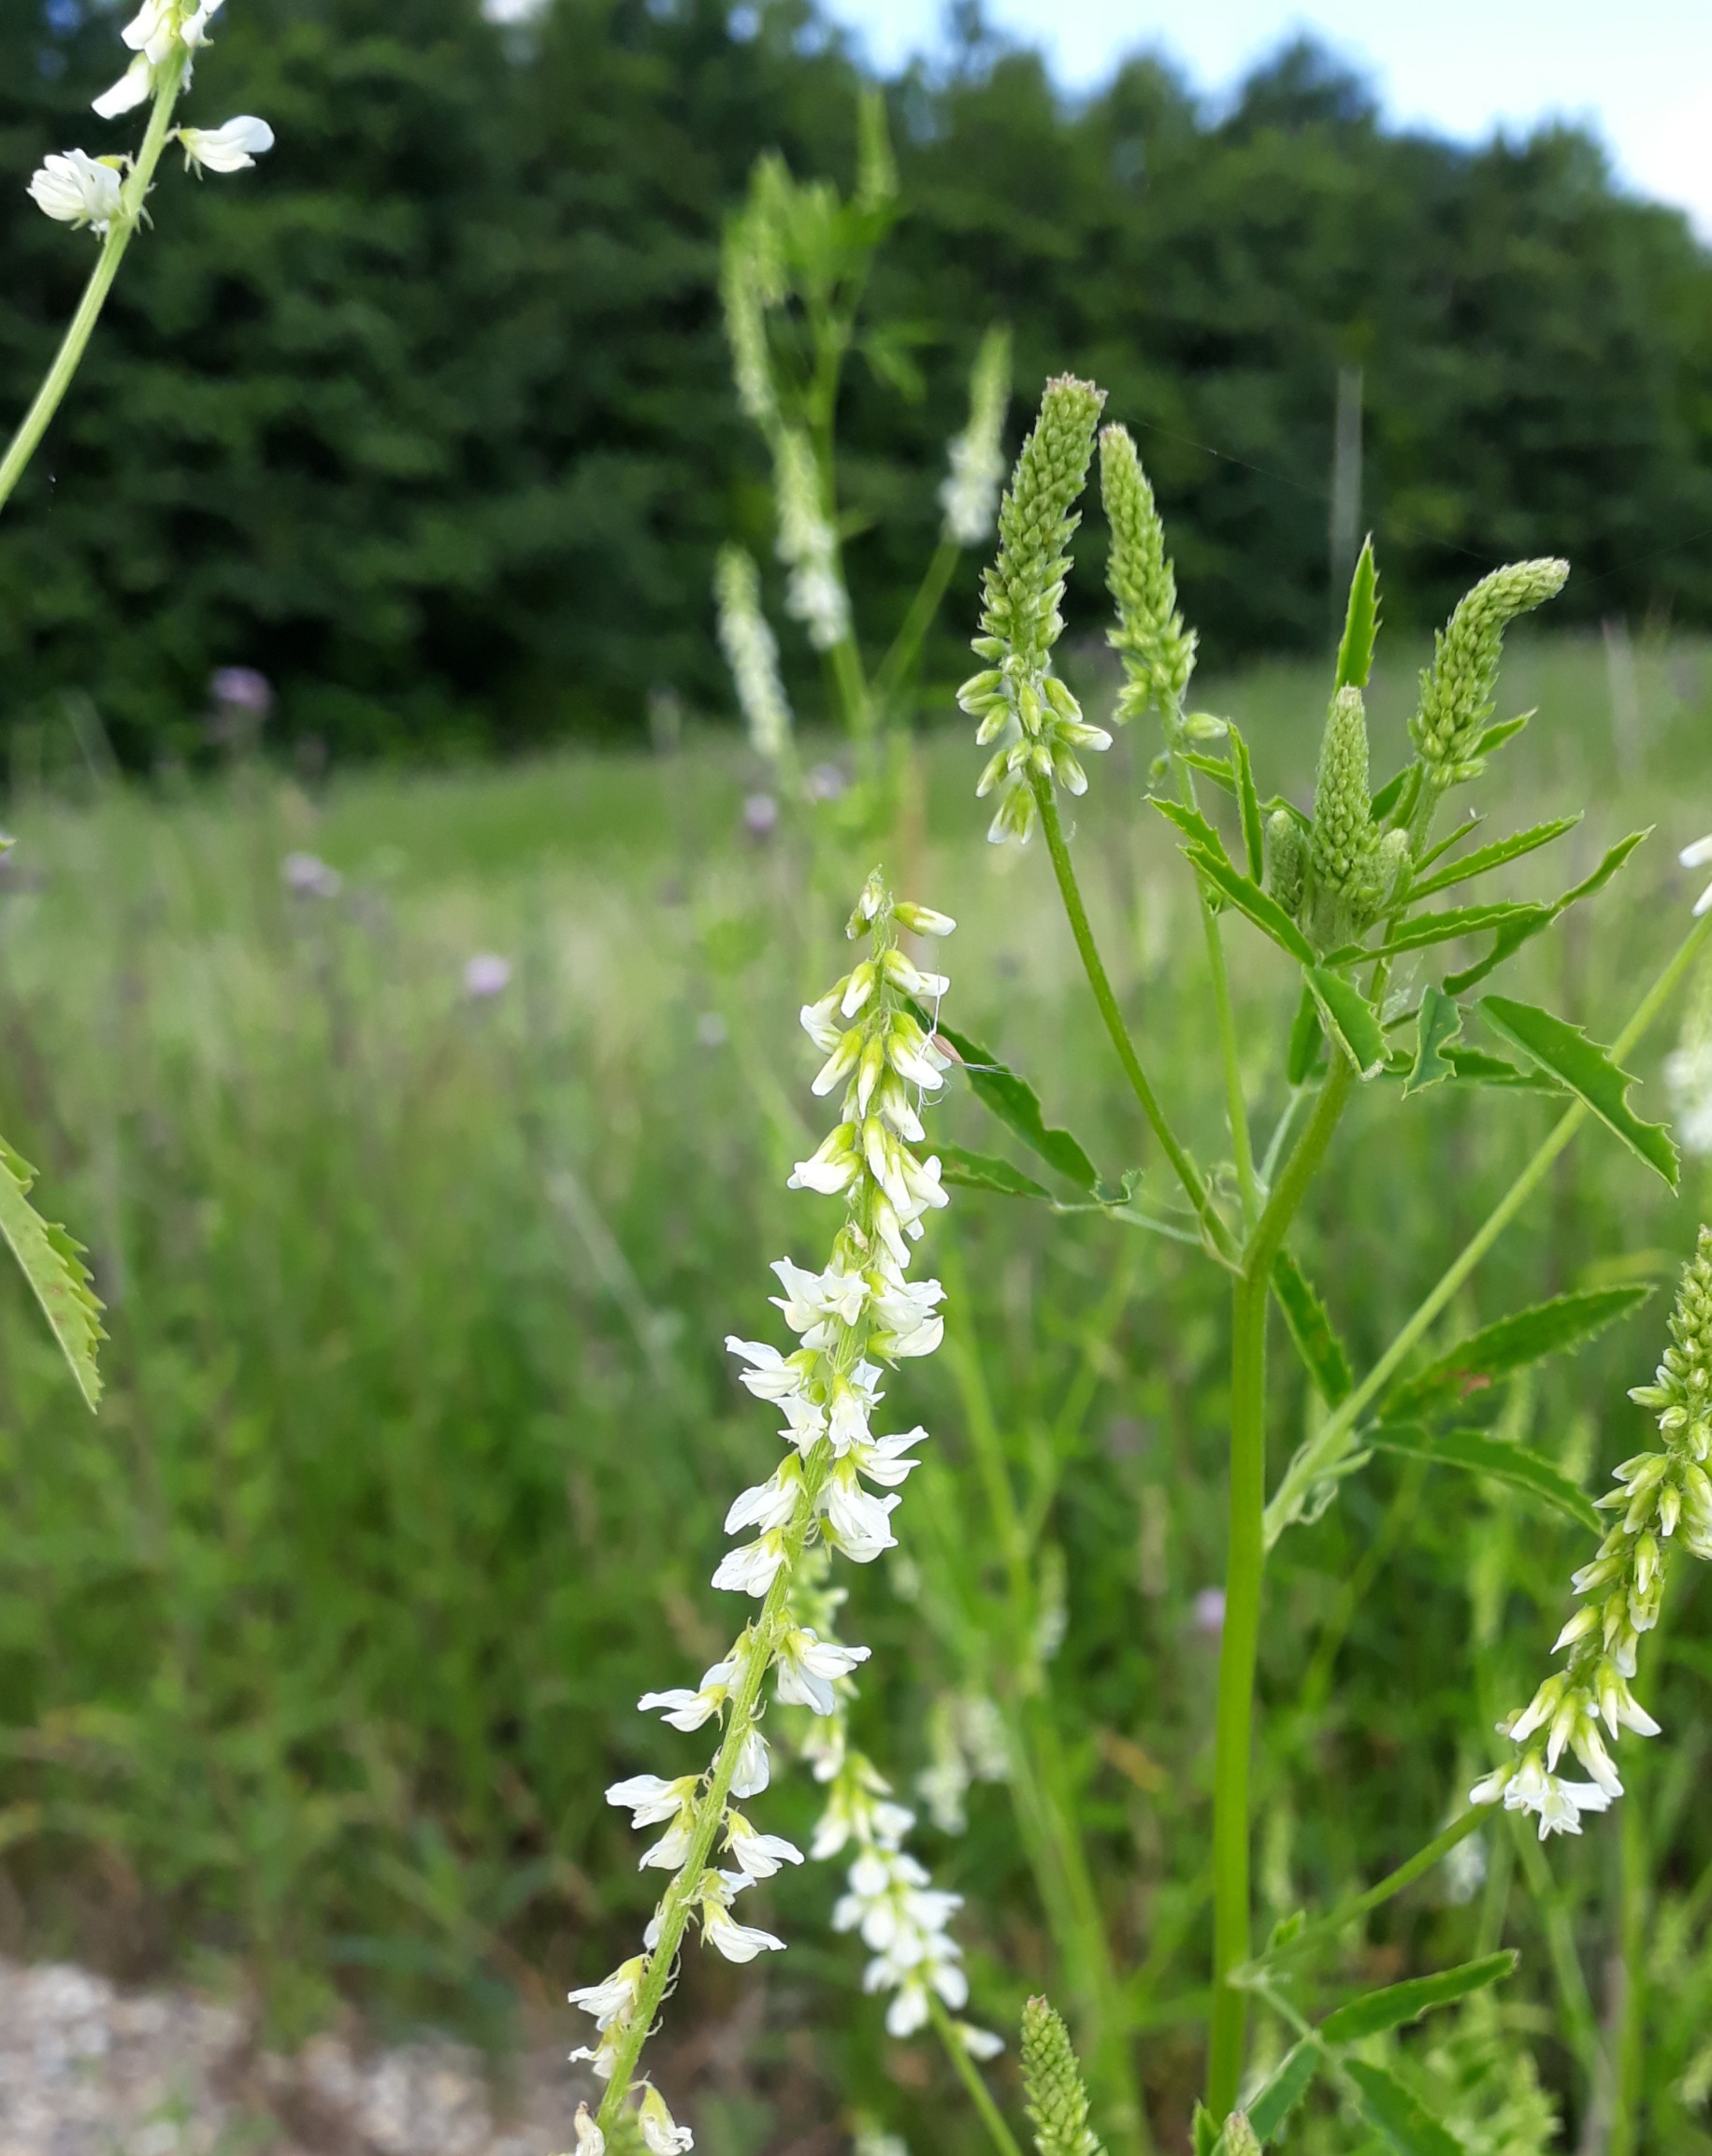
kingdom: Plantae
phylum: Tracheophyta
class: Magnoliopsida
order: Fabales
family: Fabaceae
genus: Melilotus
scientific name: Melilotus albus
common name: Hvid stenkløver
